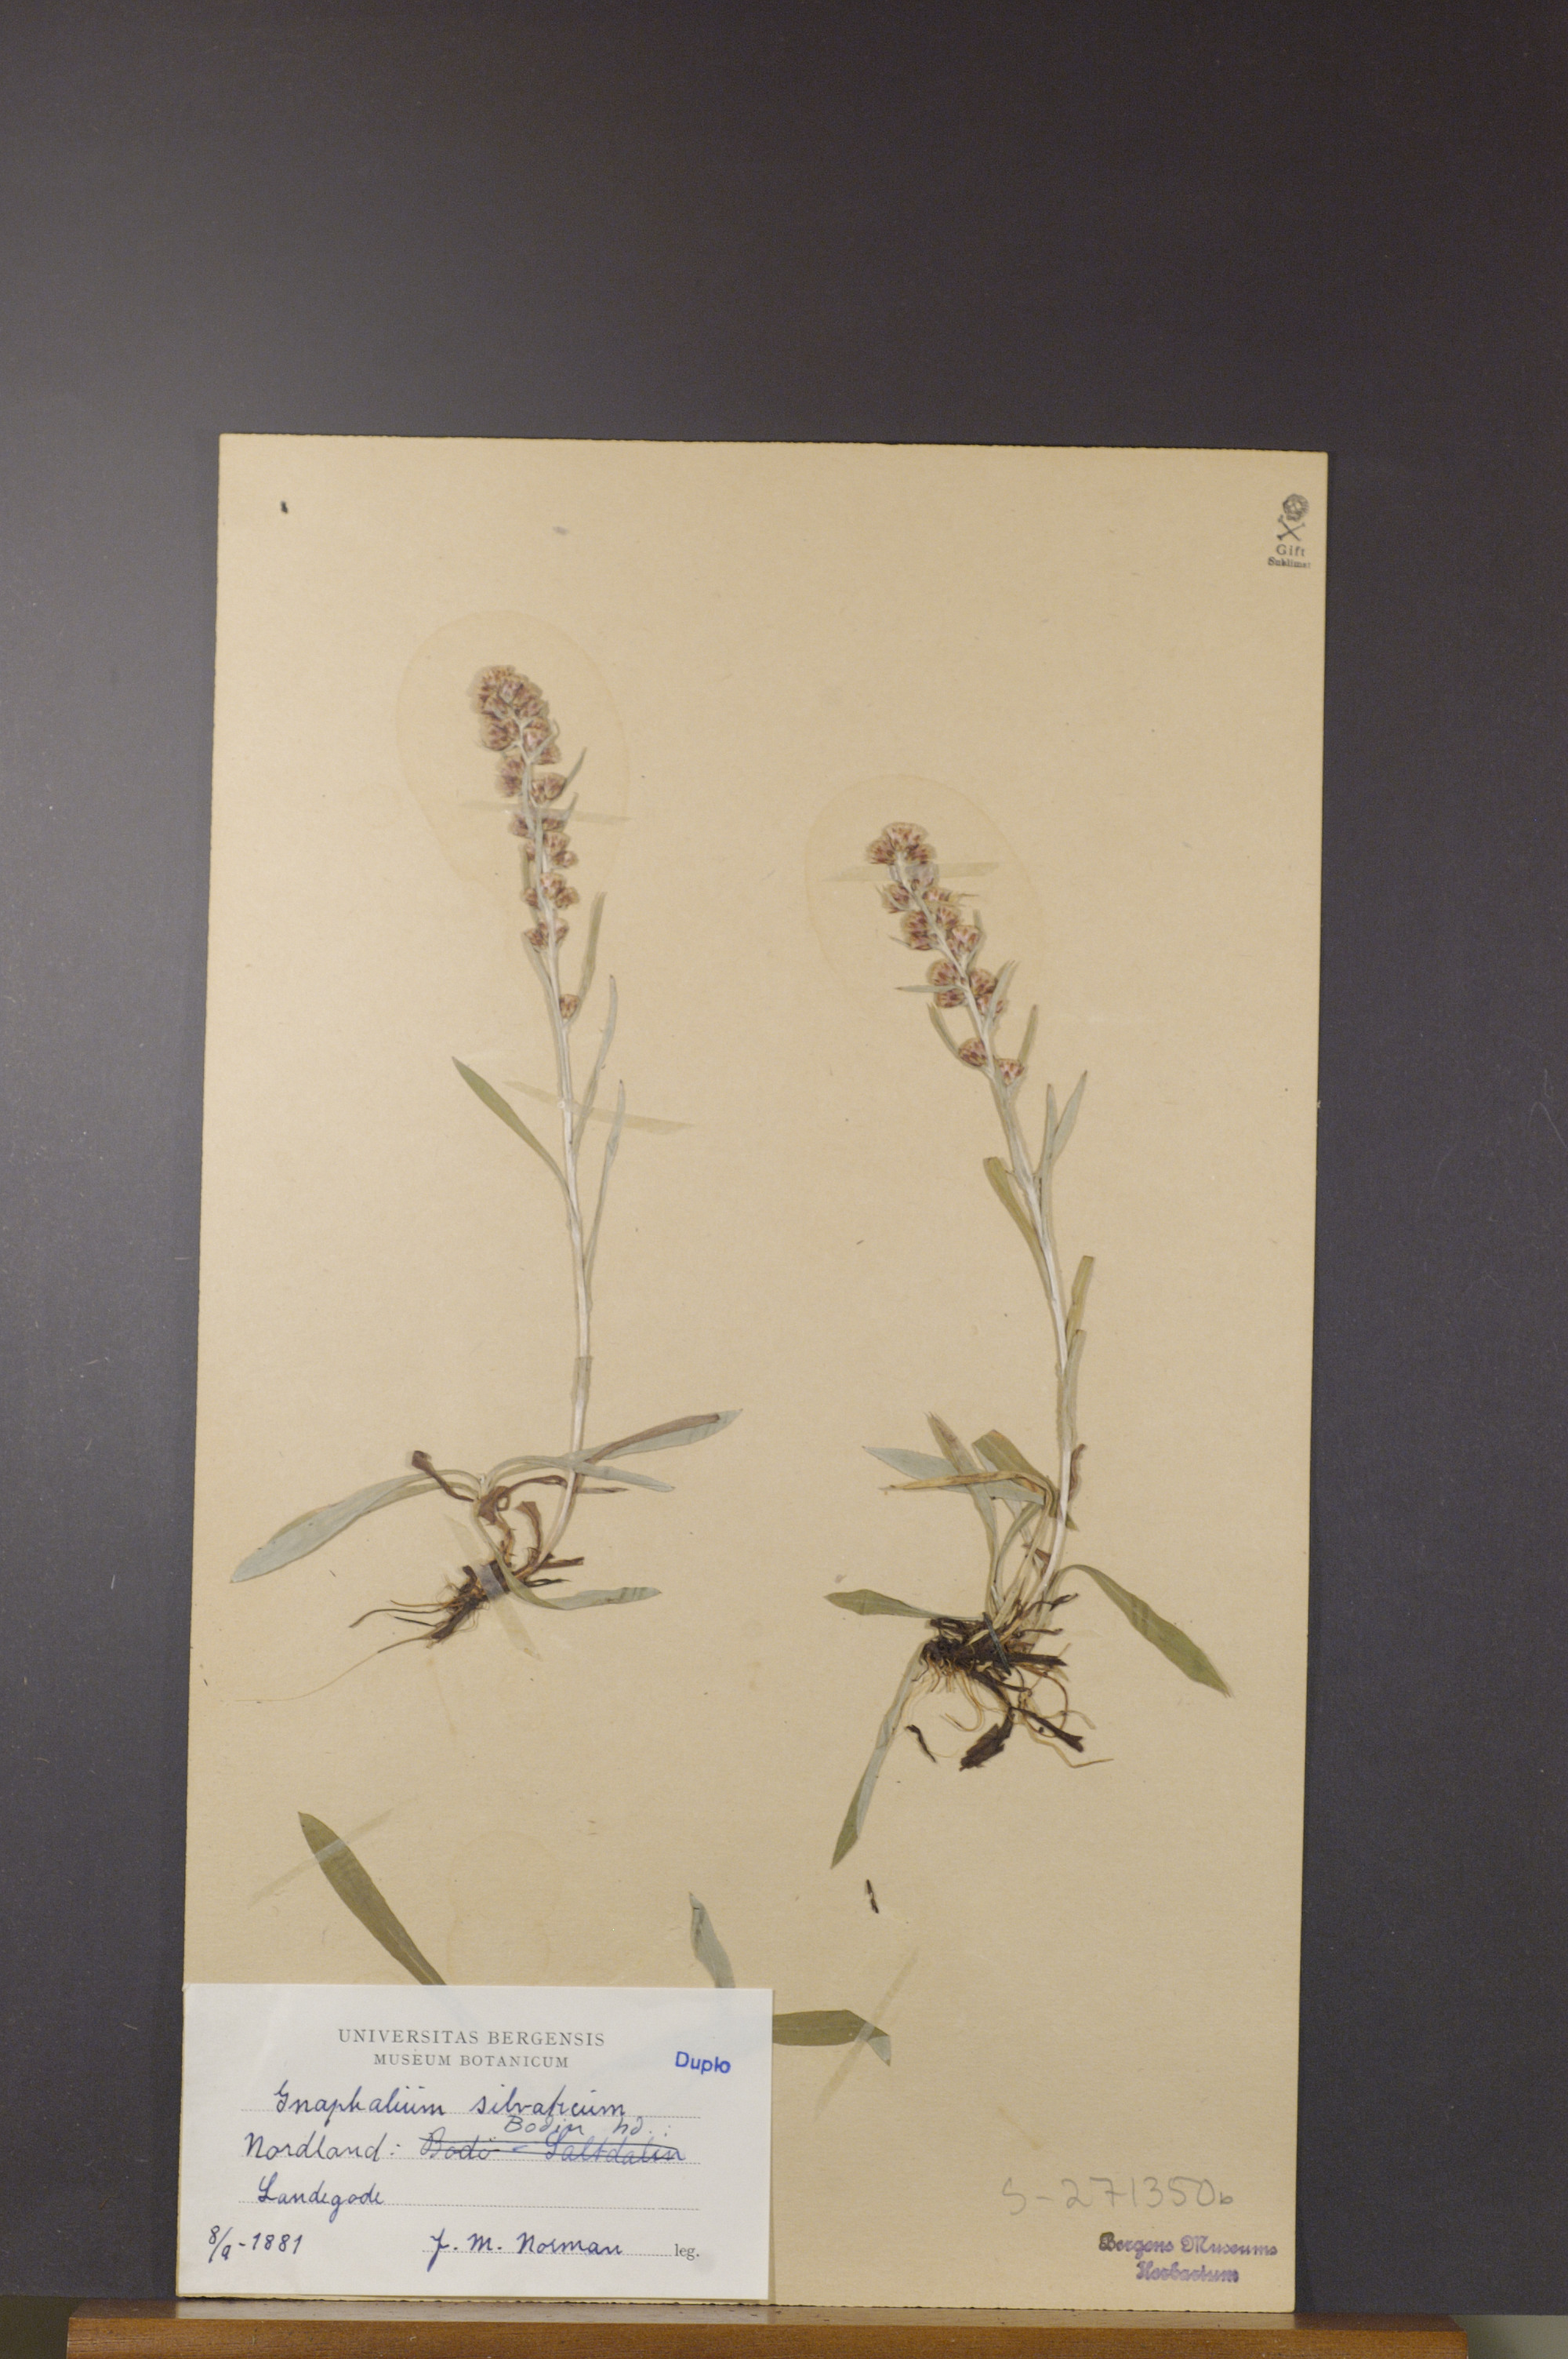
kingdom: Plantae
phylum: Tracheophyta
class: Magnoliopsida
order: Asterales
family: Asteraceae
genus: Omalotheca
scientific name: Omalotheca sylvatica
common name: Heath cudweed
